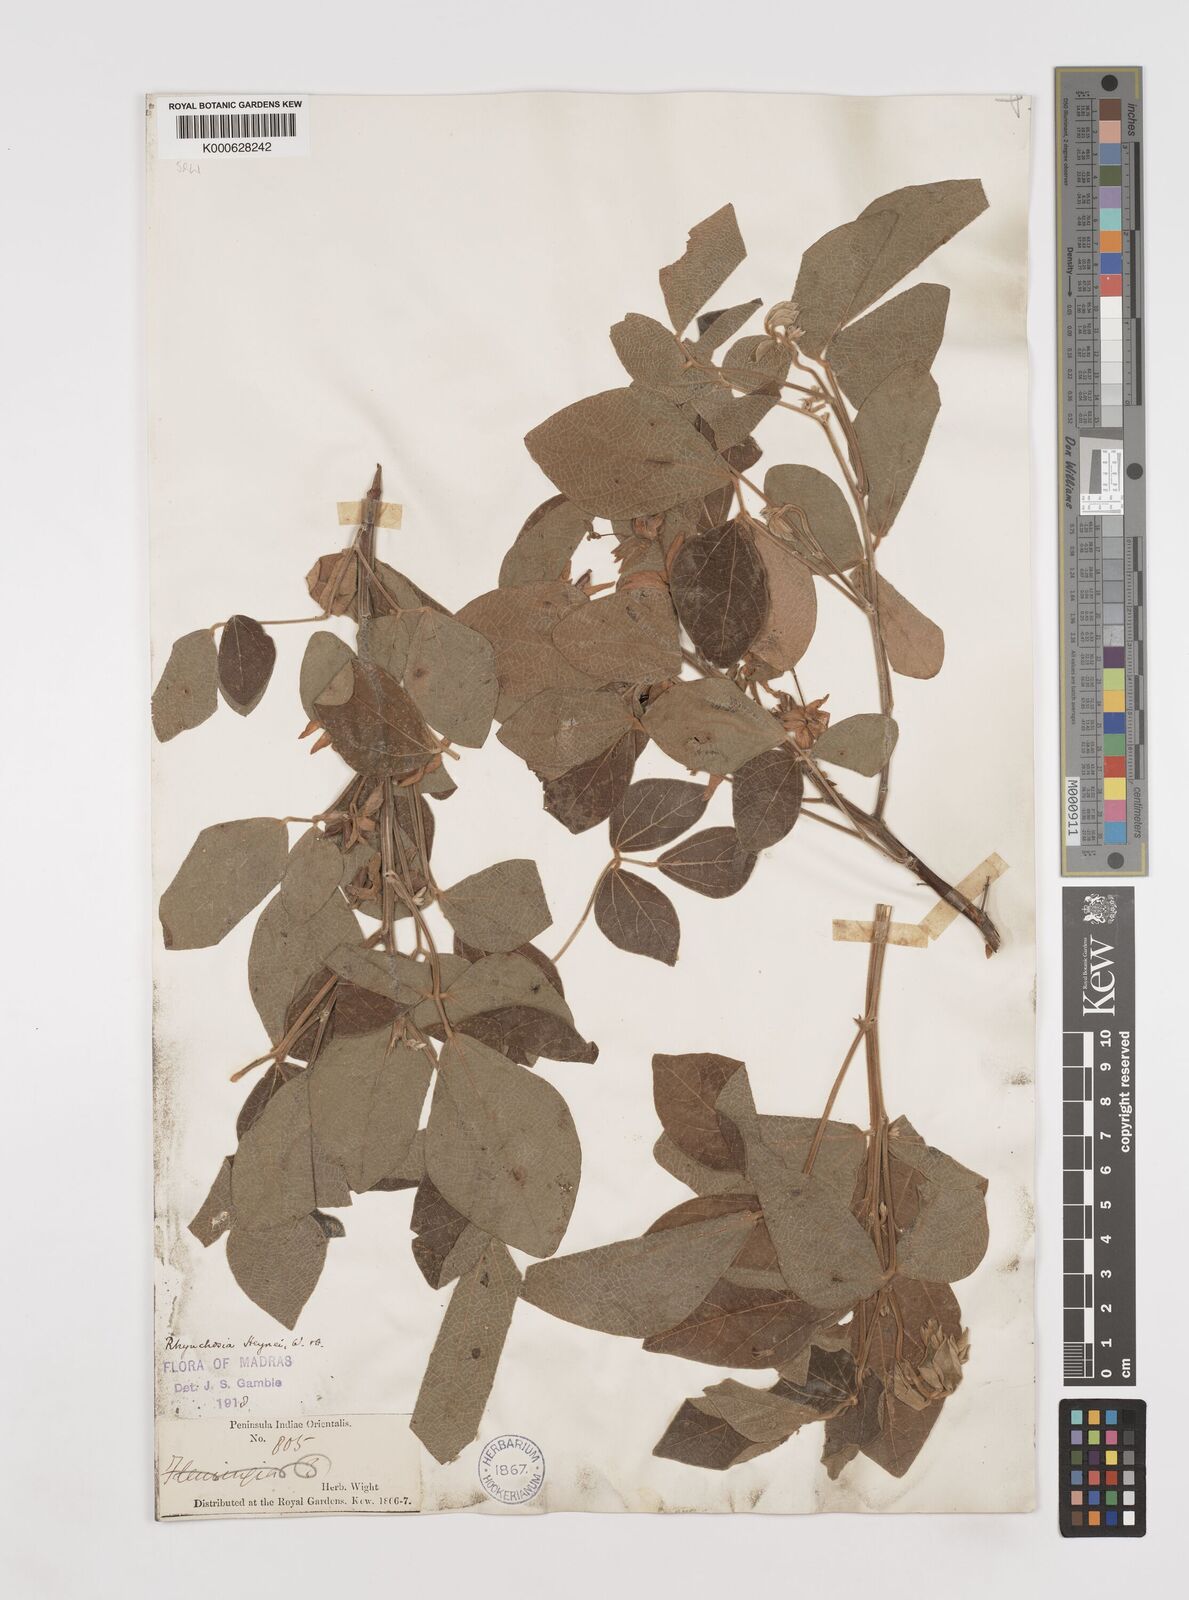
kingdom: Plantae
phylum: Tracheophyta
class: Magnoliopsida
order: Fabales
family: Fabaceae
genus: Rhynchosia
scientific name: Rhynchosia heynei
